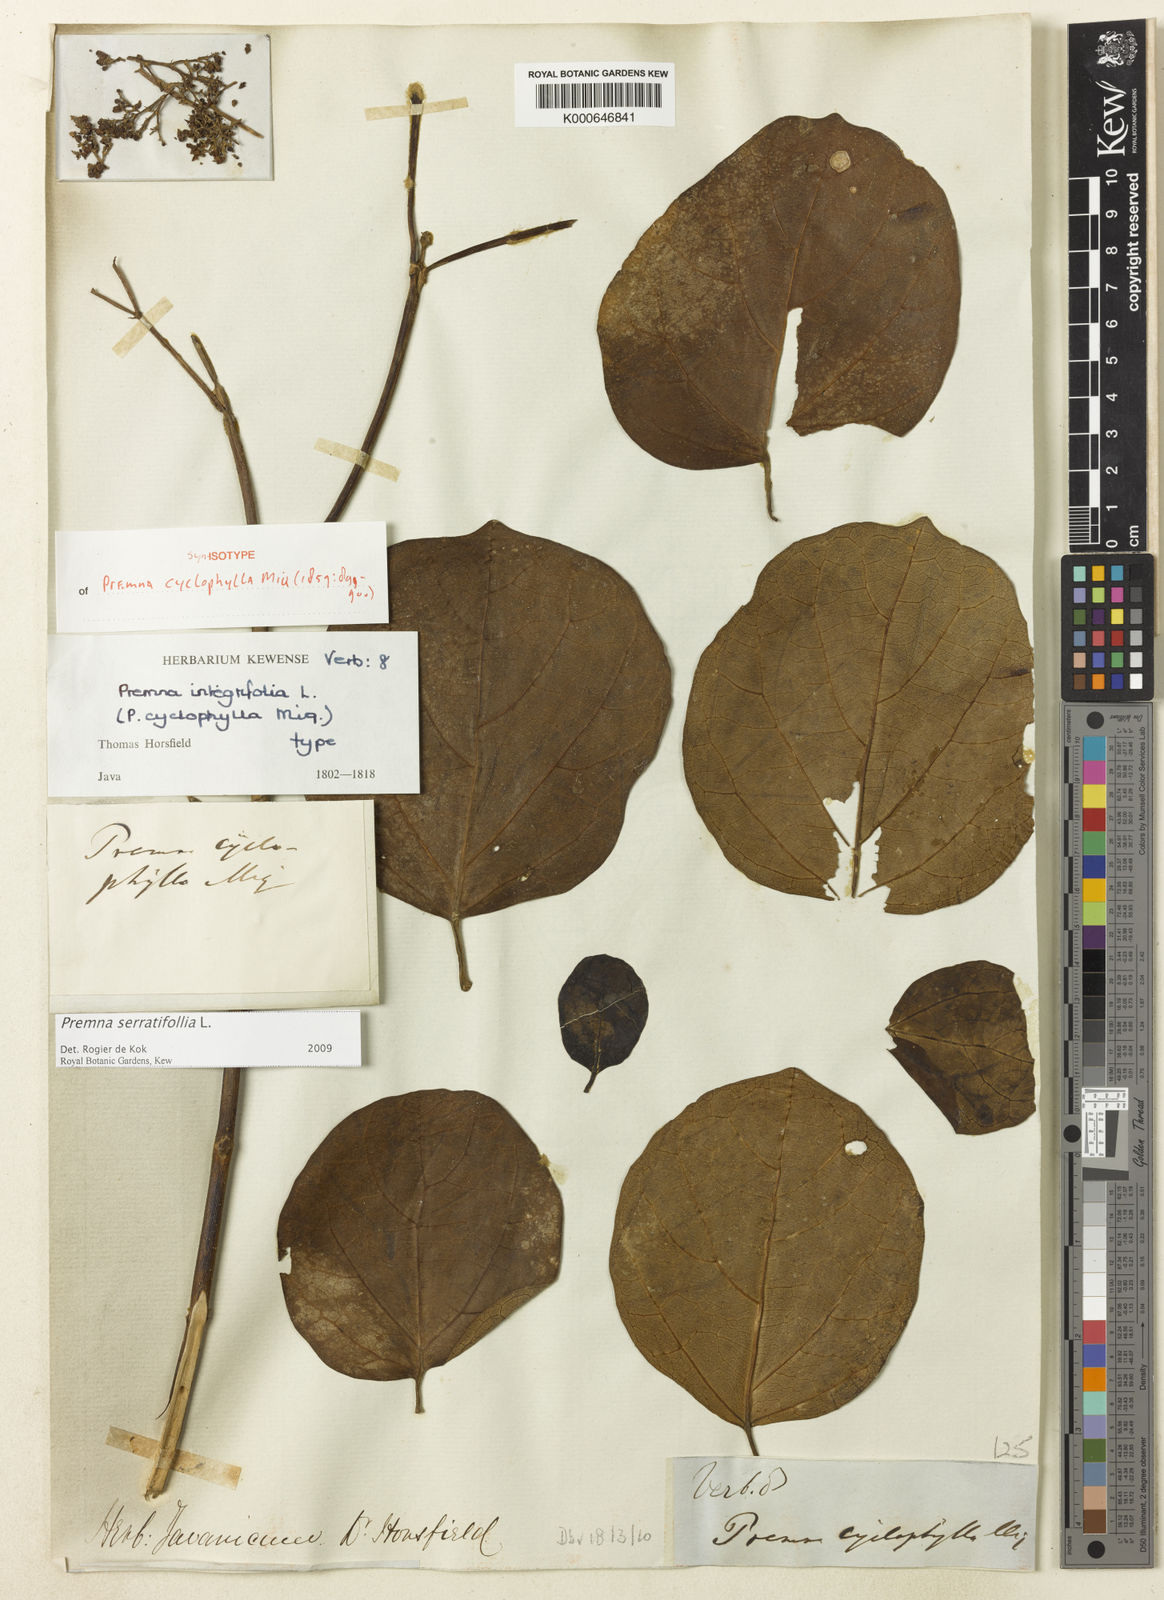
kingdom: Plantae
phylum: Tracheophyta
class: Magnoliopsida
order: Lamiales
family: Lamiaceae
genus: Premna
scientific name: Premna serratifolia
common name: Bastard guelder
